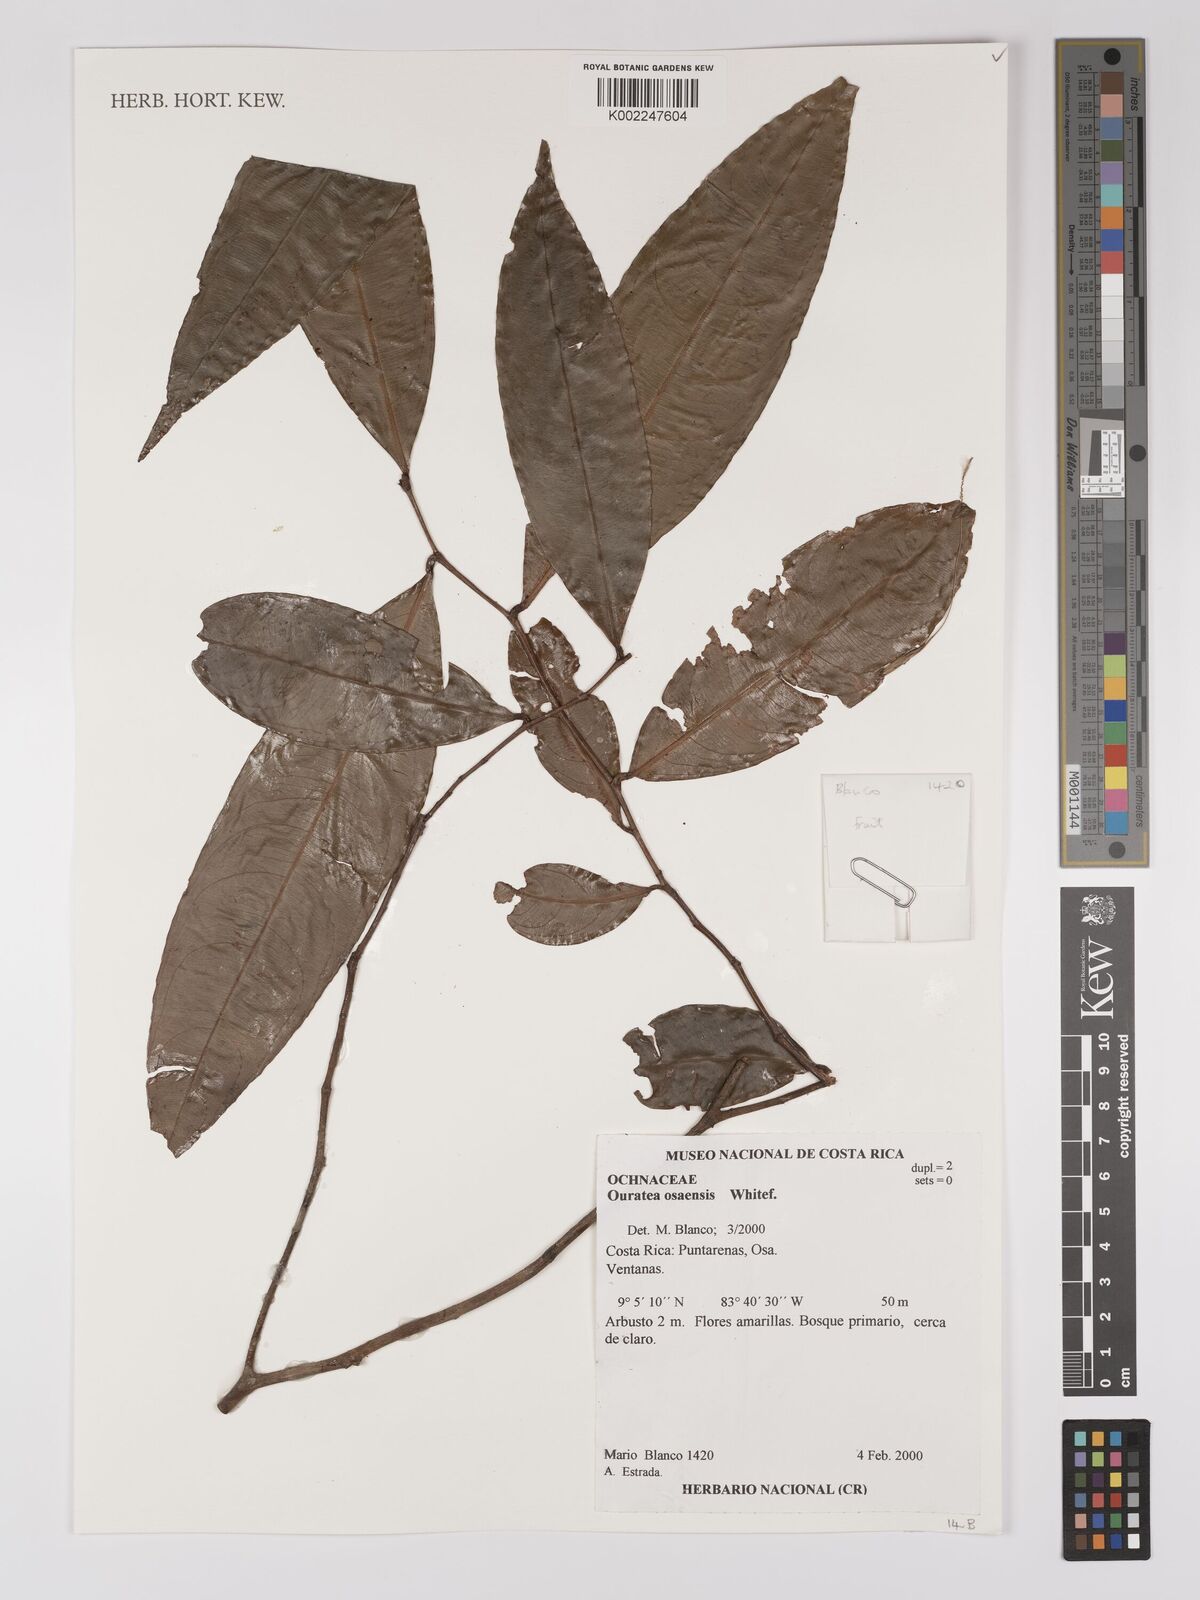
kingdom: Plantae
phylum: Tracheophyta
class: Magnoliopsida
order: Malpighiales
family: Ochnaceae
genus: Ouratea
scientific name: Ouratea osaensis
